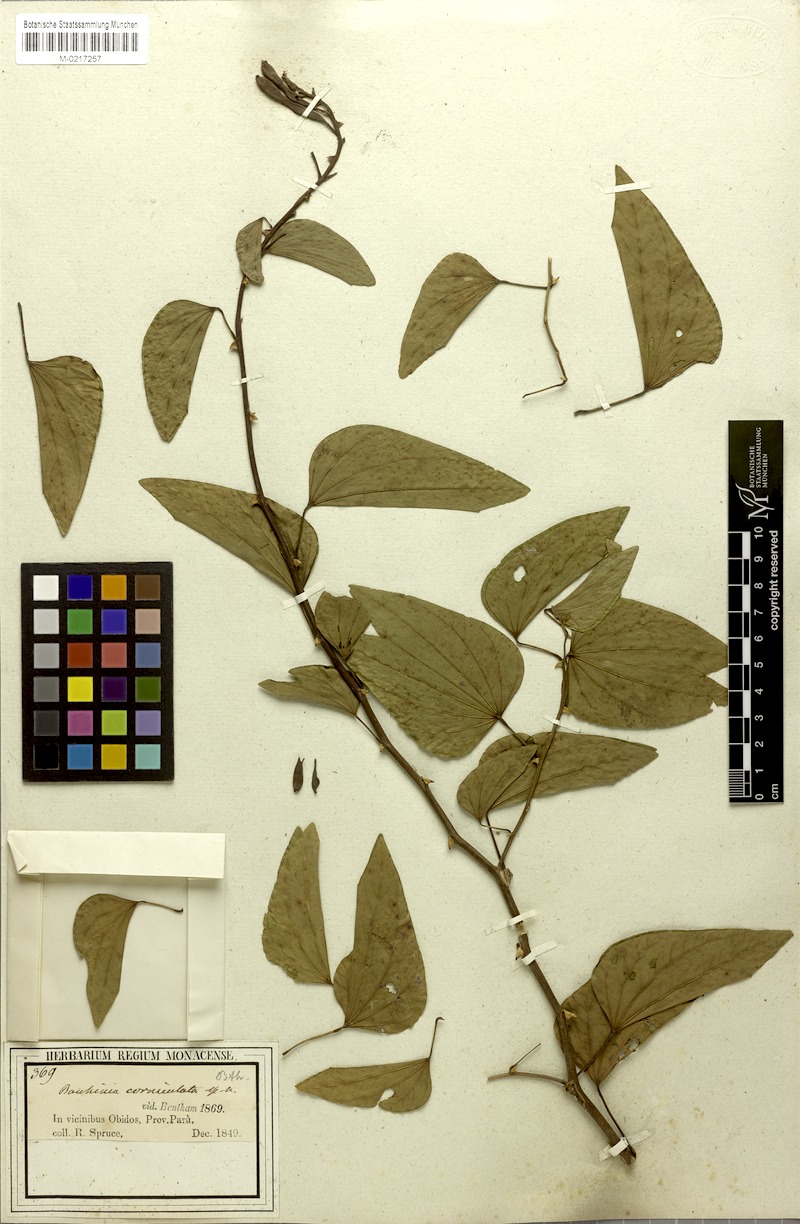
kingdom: Plantae
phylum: Tracheophyta
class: Magnoliopsida
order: Fabales
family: Fabaceae
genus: Bauhinia
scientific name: Bauhinia corniculata
